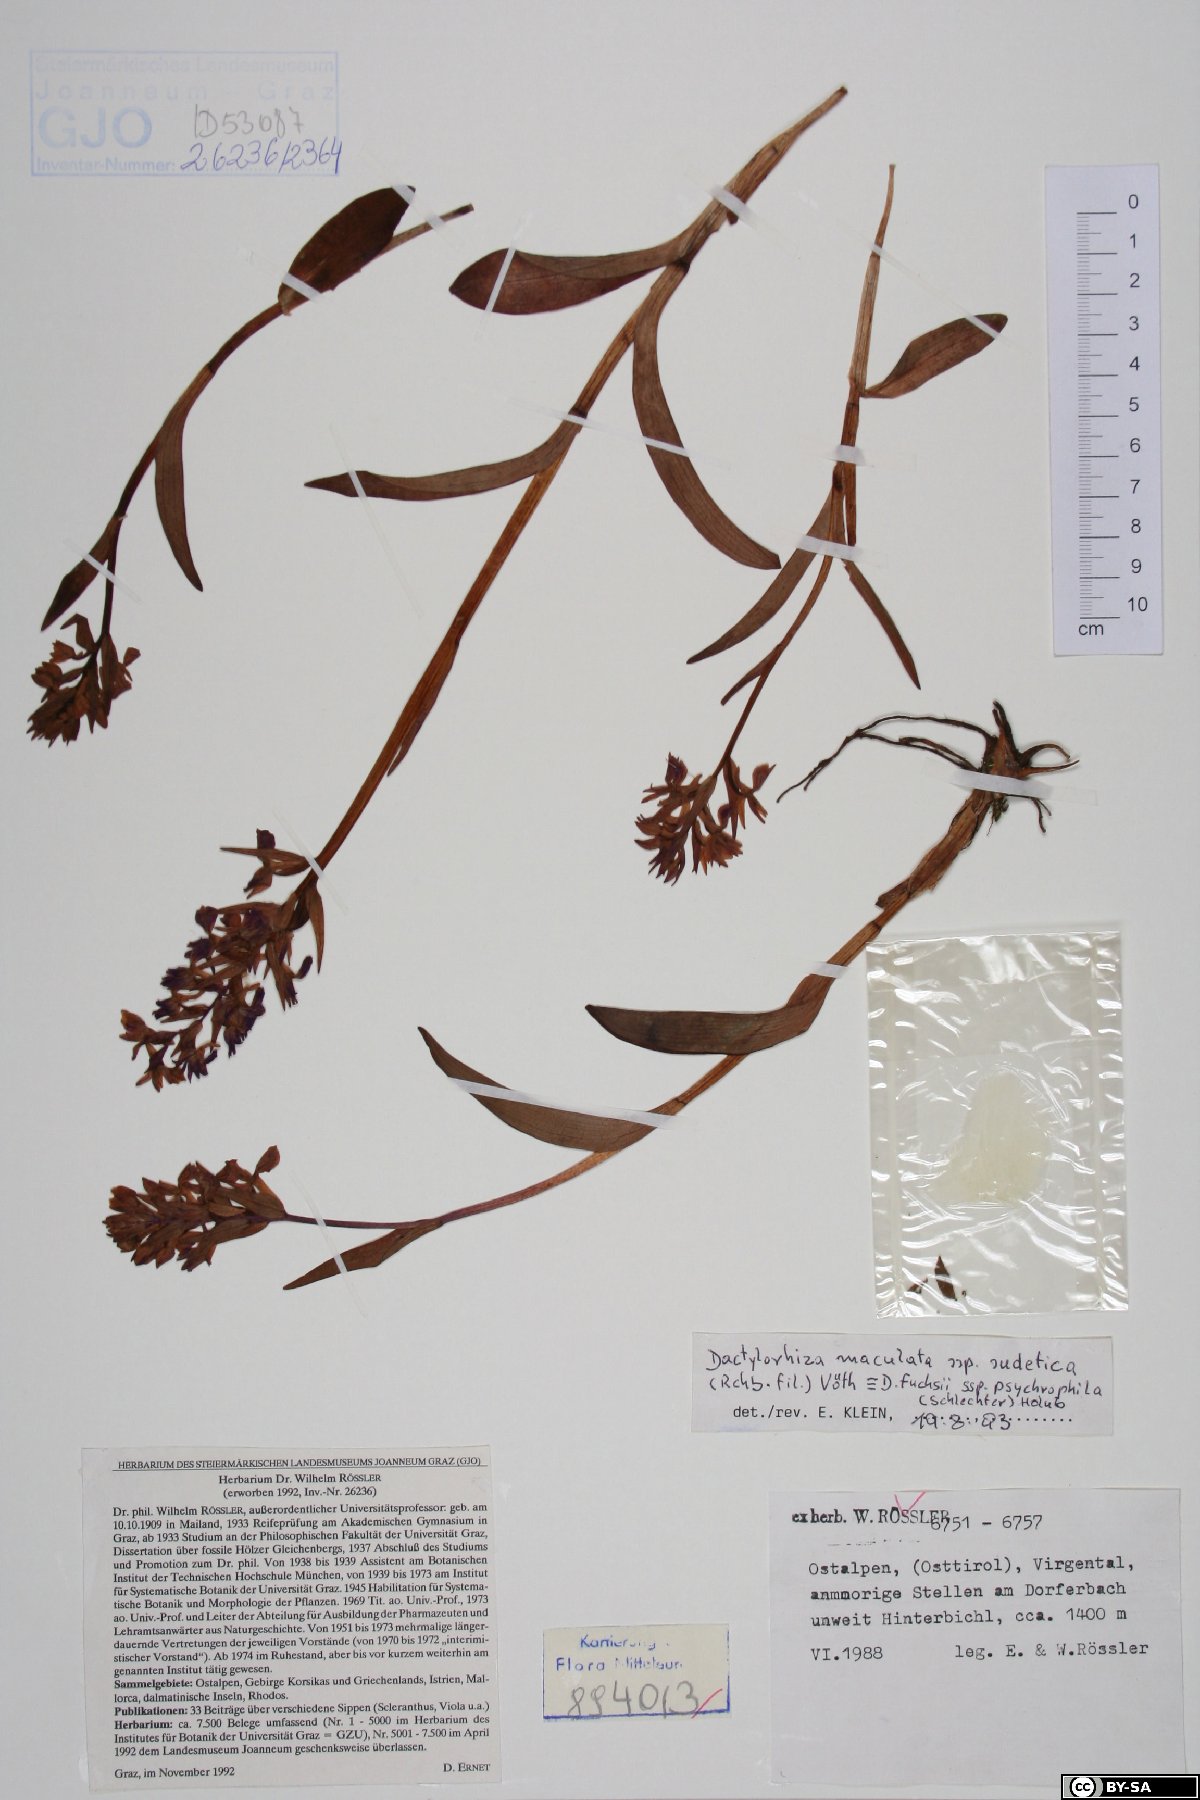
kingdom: Plantae
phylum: Tracheophyta
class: Liliopsida
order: Asparagales
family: Orchidaceae
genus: Dactylorhiza
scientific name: Dactylorhiza maculata
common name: Heath spotted-orchid
